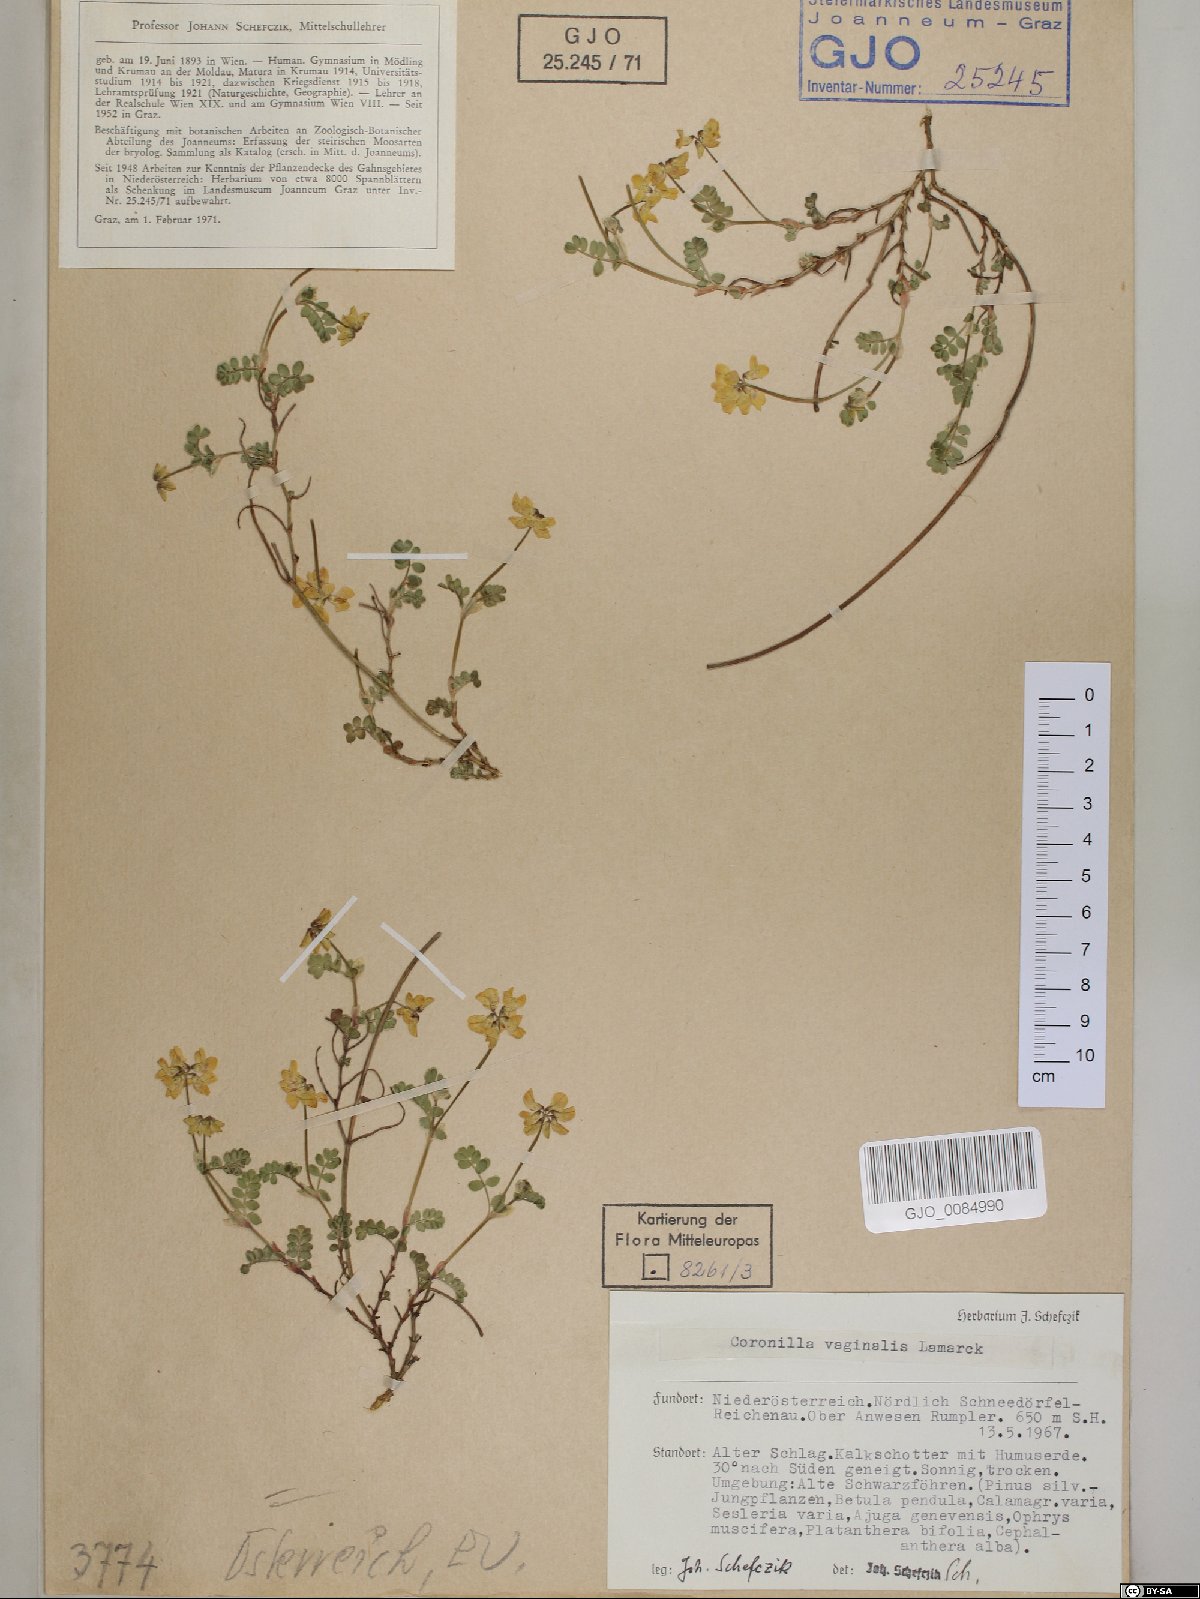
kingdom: Plantae
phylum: Tracheophyta
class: Magnoliopsida
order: Fabales
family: Fabaceae
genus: Coronilla
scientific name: Coronilla vaginalis
